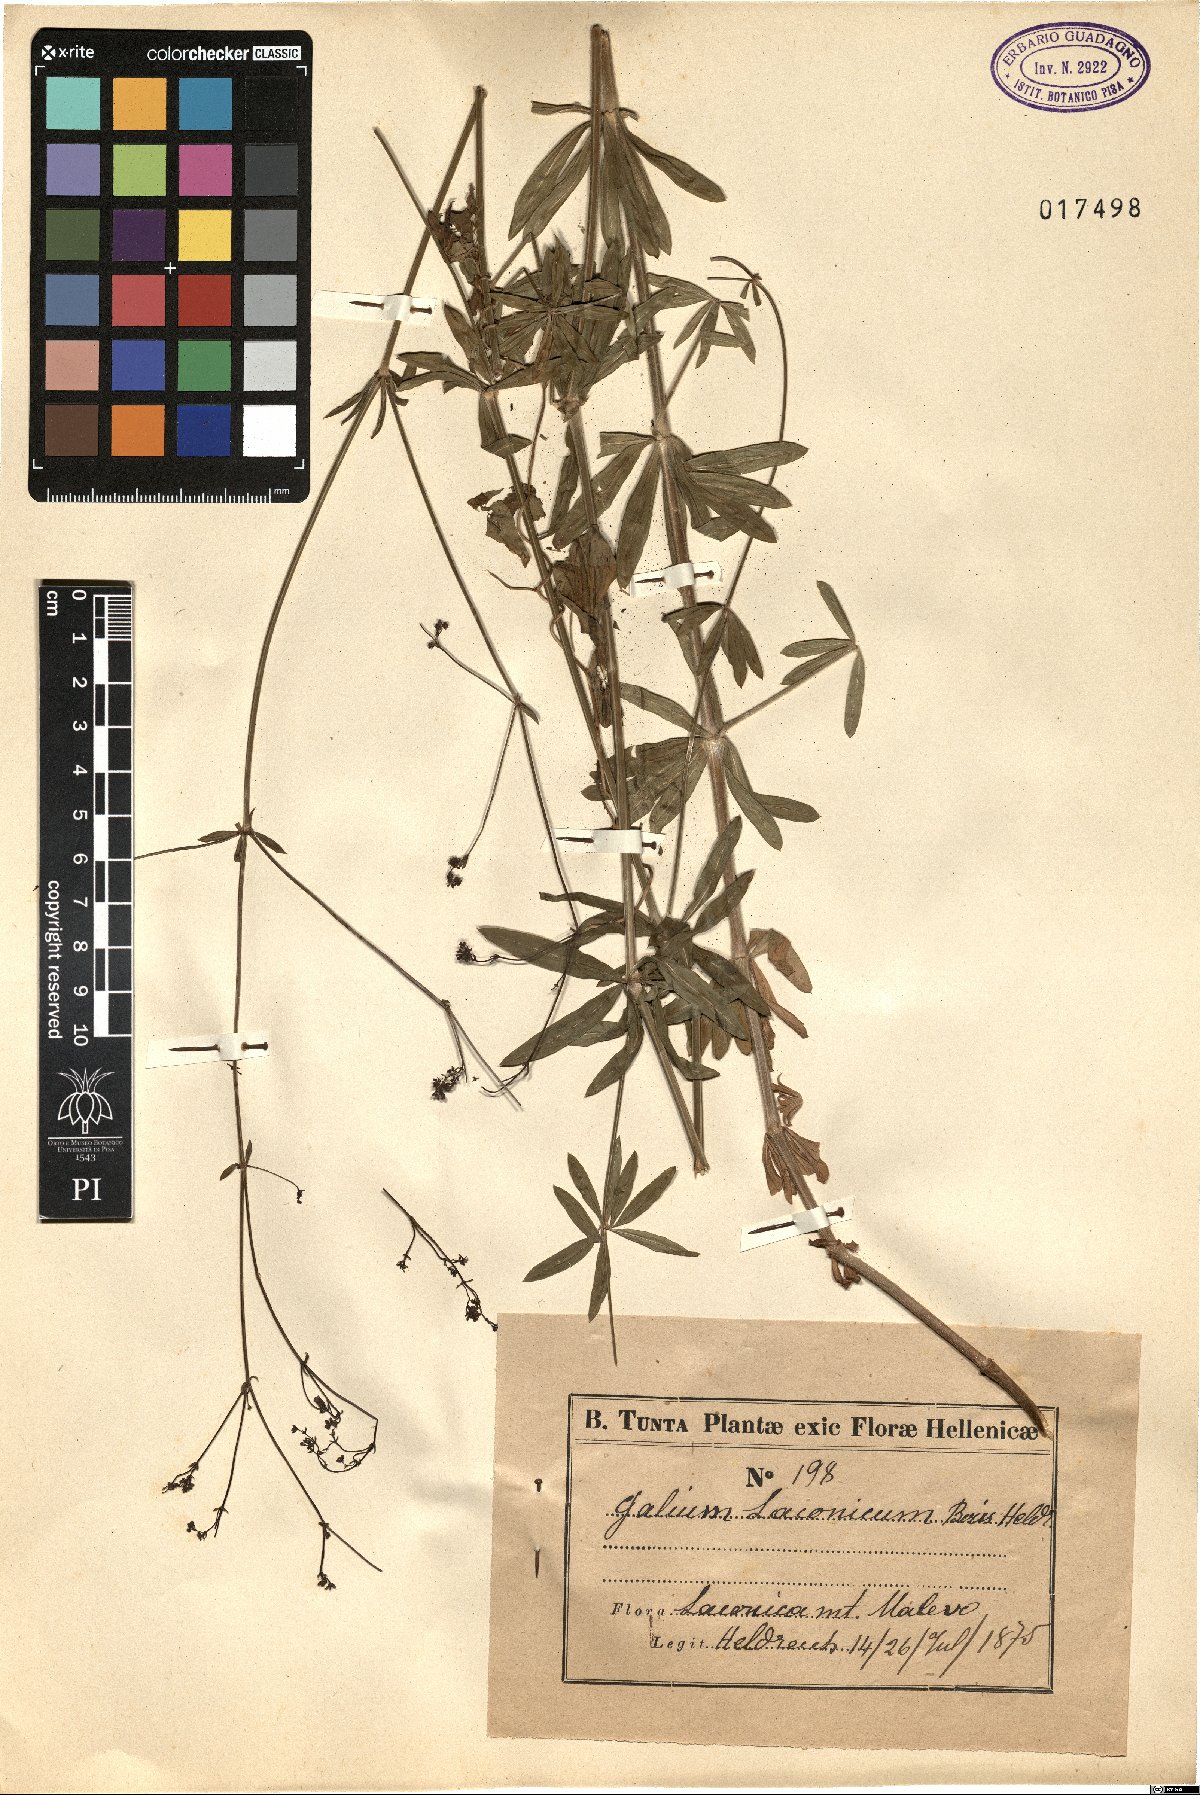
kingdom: Plantae
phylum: Tracheophyta
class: Magnoliopsida
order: Gentianales
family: Rubiaceae
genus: Galium
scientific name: Galium laconicum
